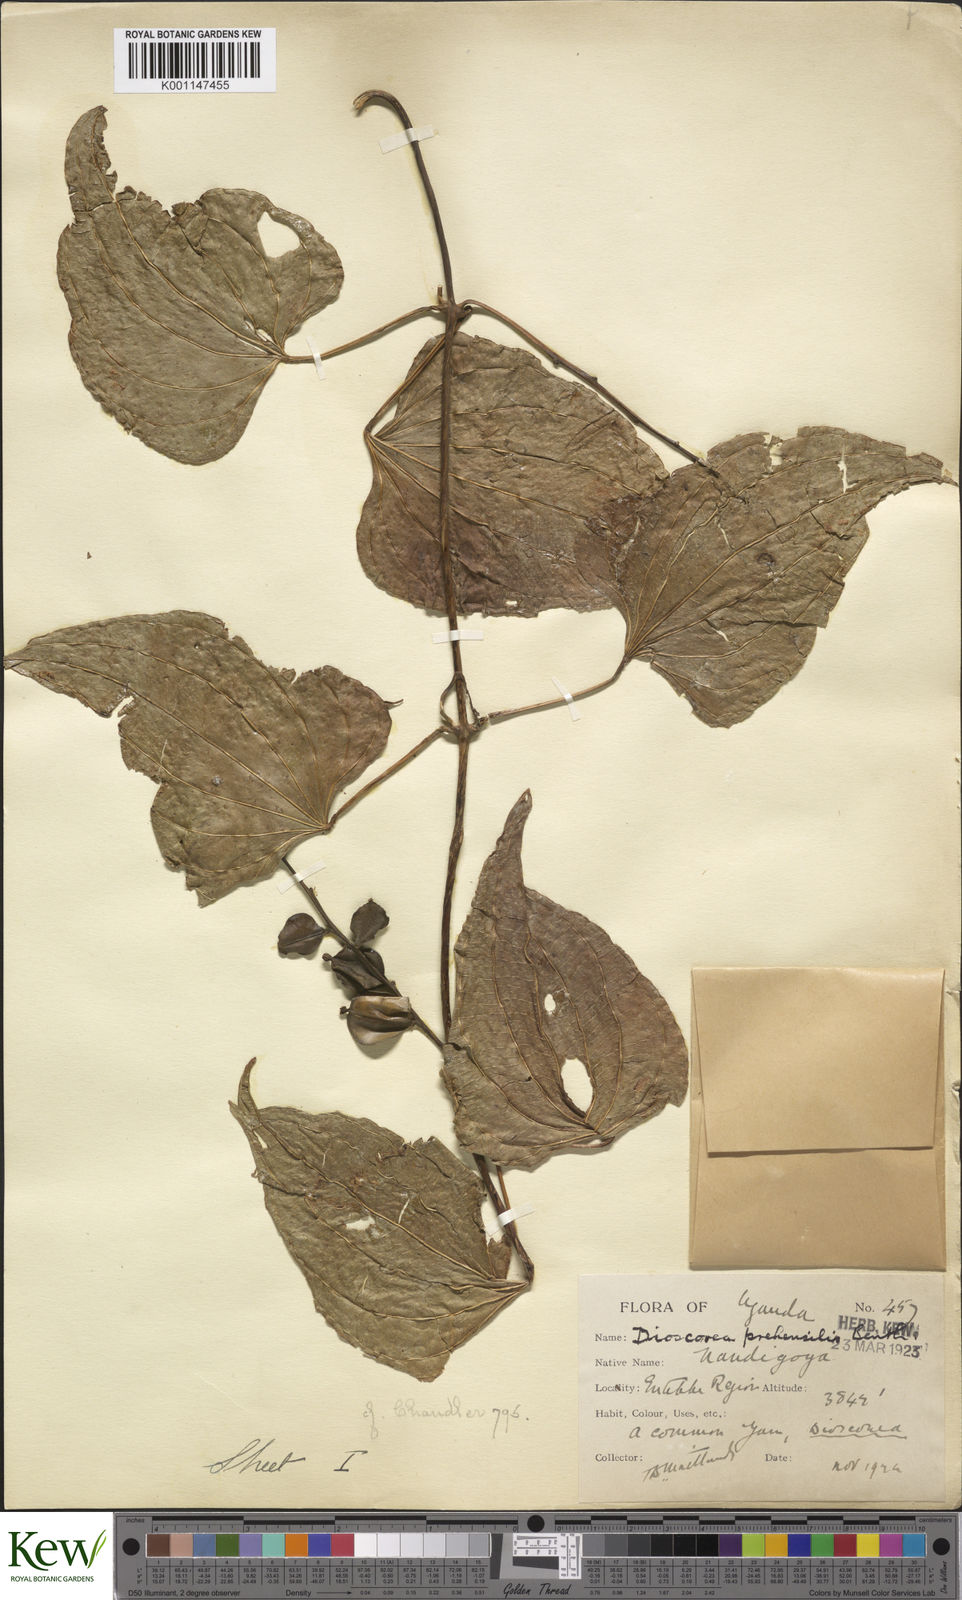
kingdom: Plantae
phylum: Tracheophyta
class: Liliopsida
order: Dioscoreales
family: Dioscoreaceae
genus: Dioscorea
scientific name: Dioscorea
